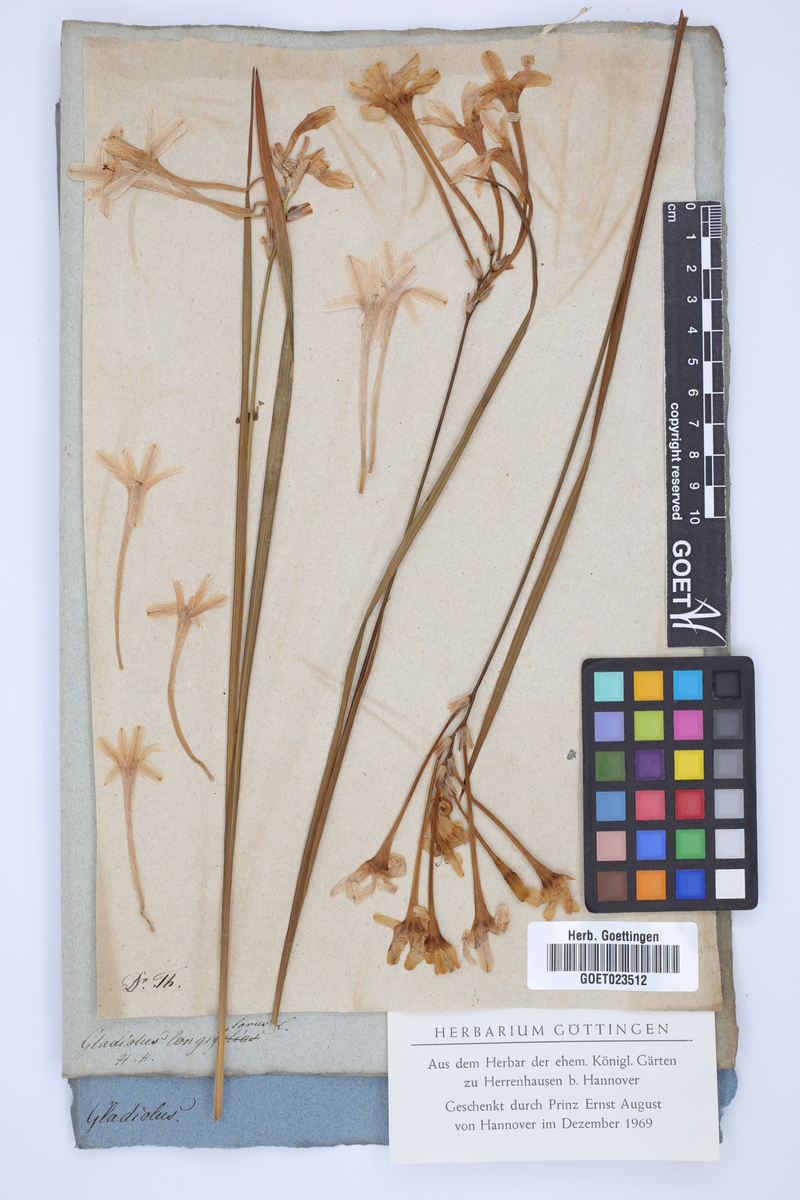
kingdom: Plantae
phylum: Tracheophyta
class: Liliopsida
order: Asparagales
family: Iridaceae
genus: Tritonia
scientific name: Tritonia cooperi
